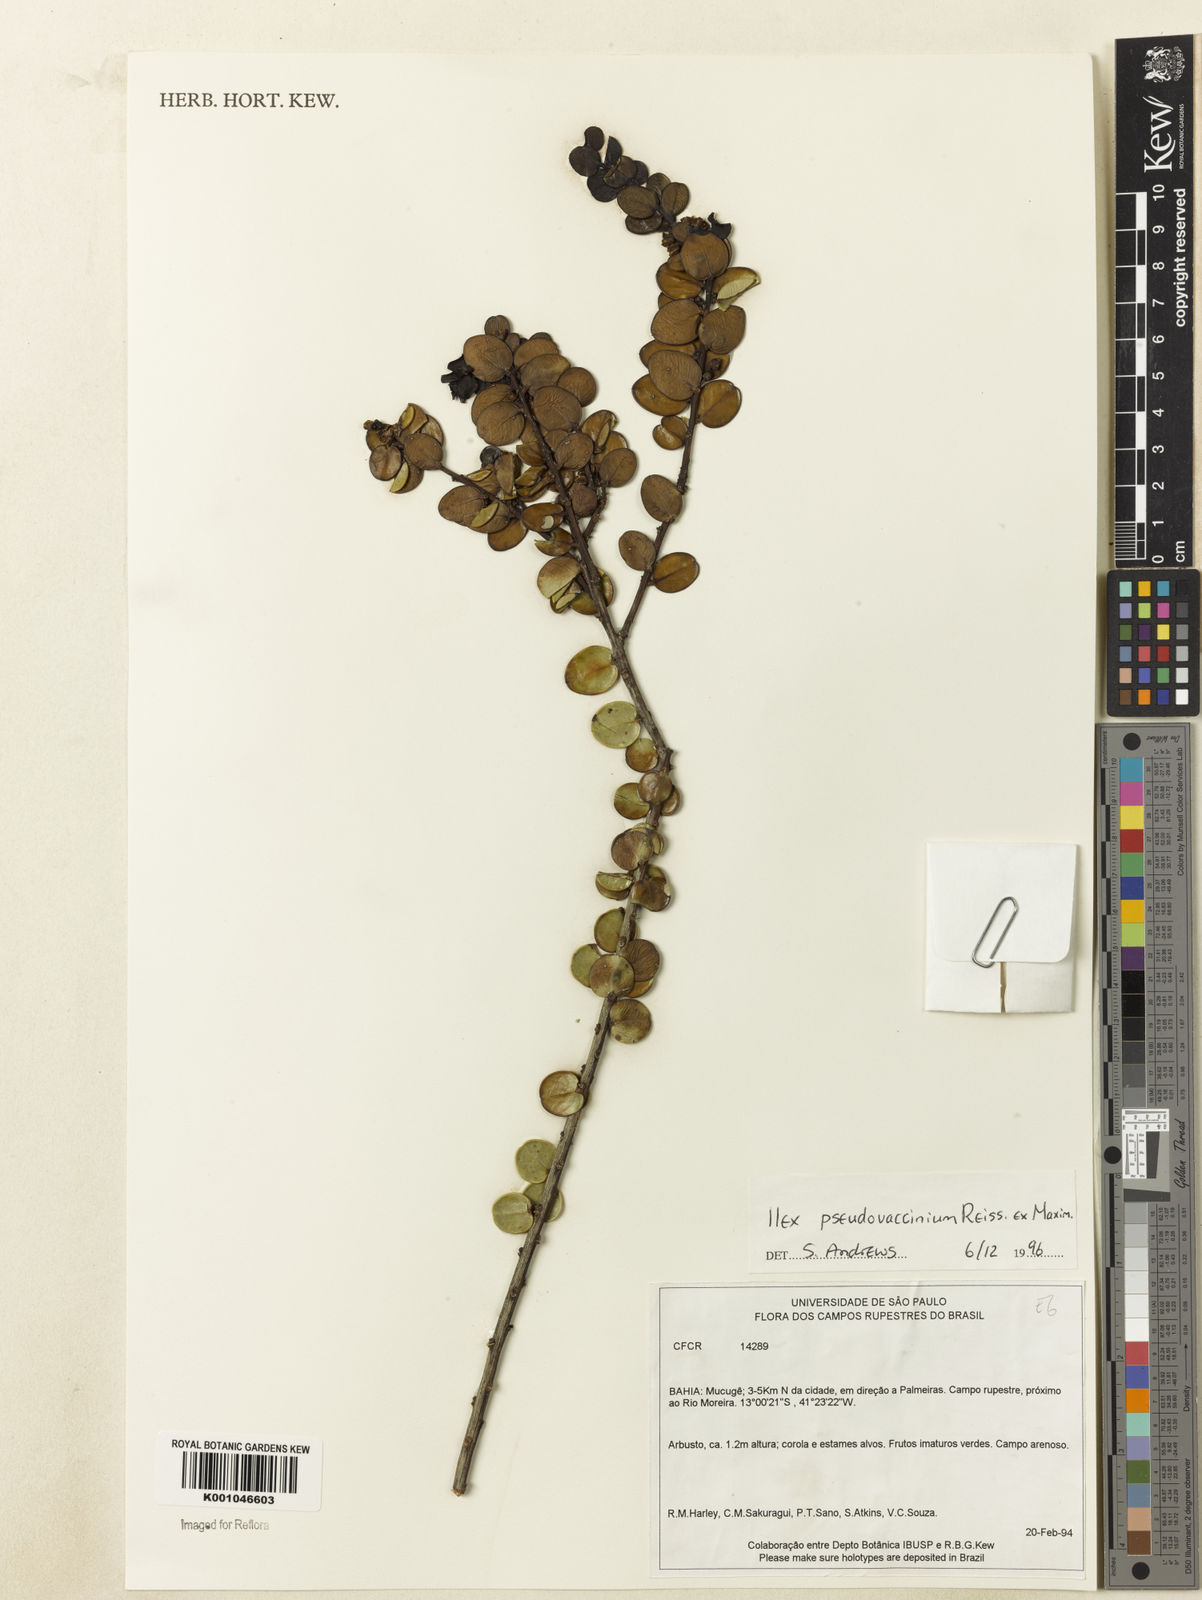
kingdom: Plantae
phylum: Tracheophyta
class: Magnoliopsida
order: Aquifoliales
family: Aquifoliaceae
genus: Ilex
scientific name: Ilex pseudovaccinium
